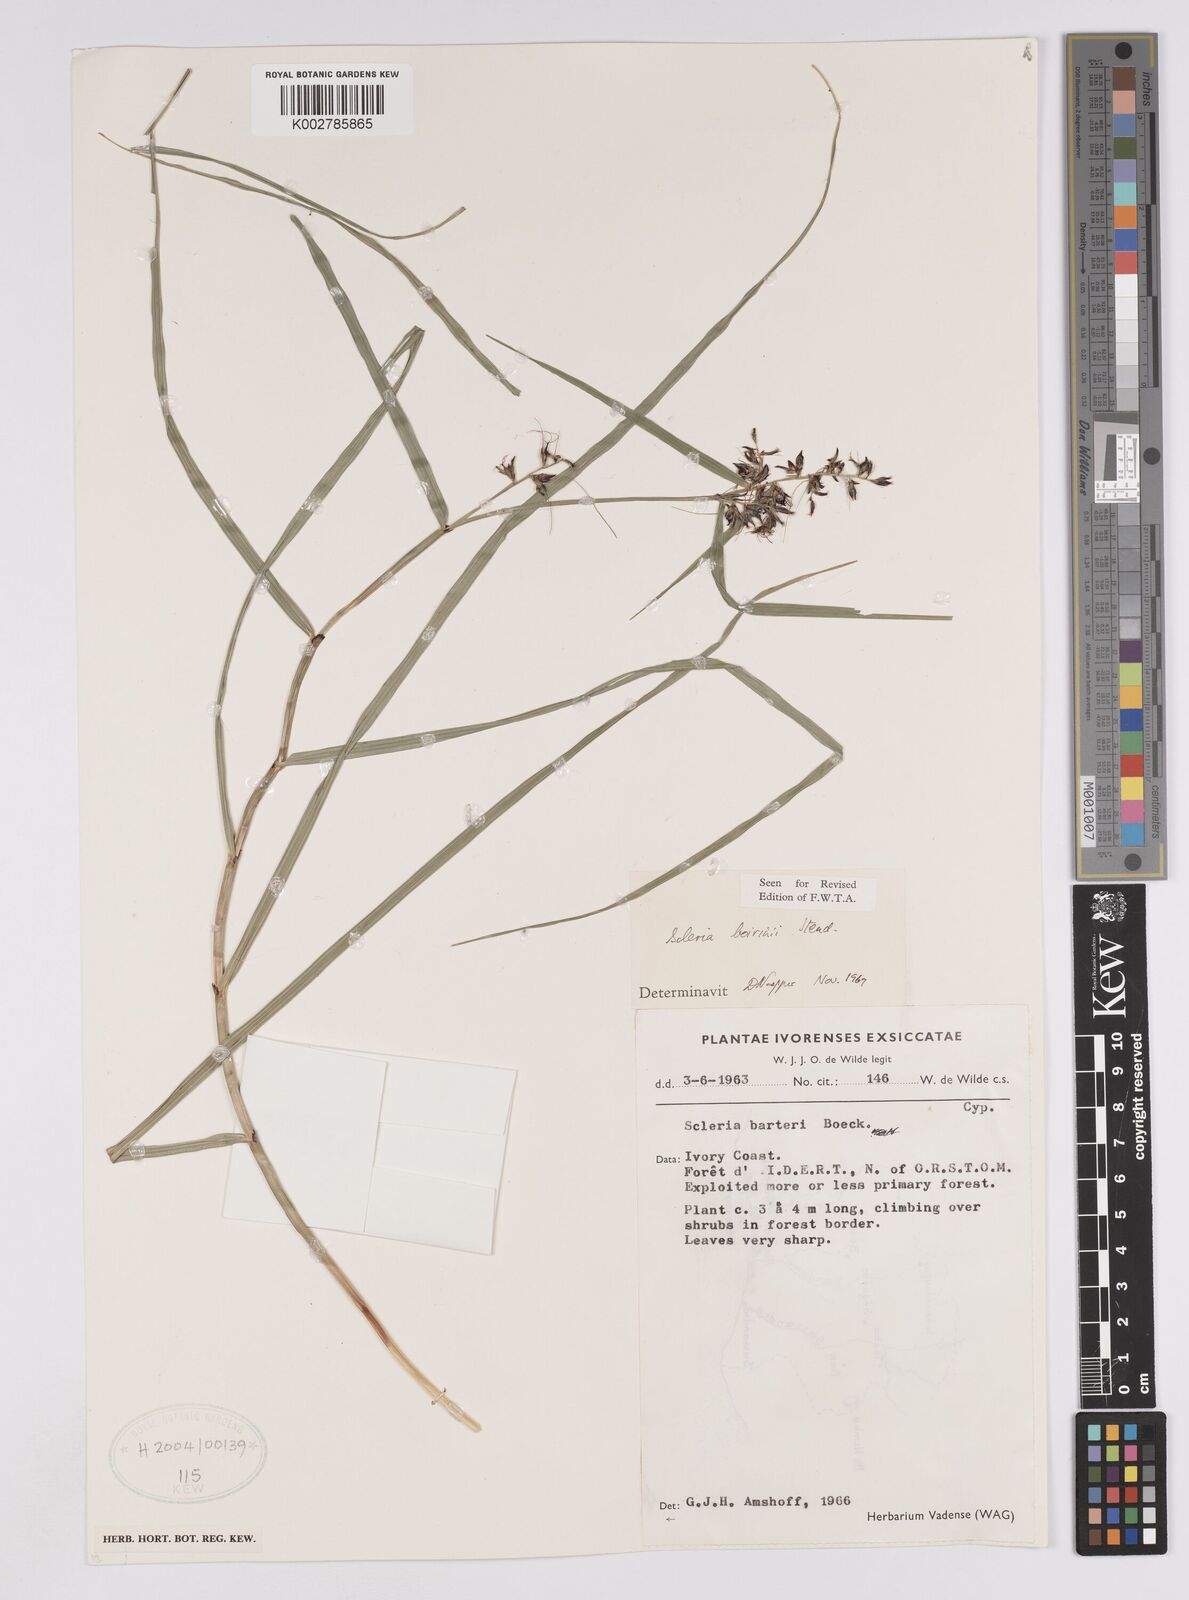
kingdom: Plantae
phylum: Tracheophyta
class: Liliopsida
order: Poales
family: Cyperaceae
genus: Scleria
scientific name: Scleria boivinii
